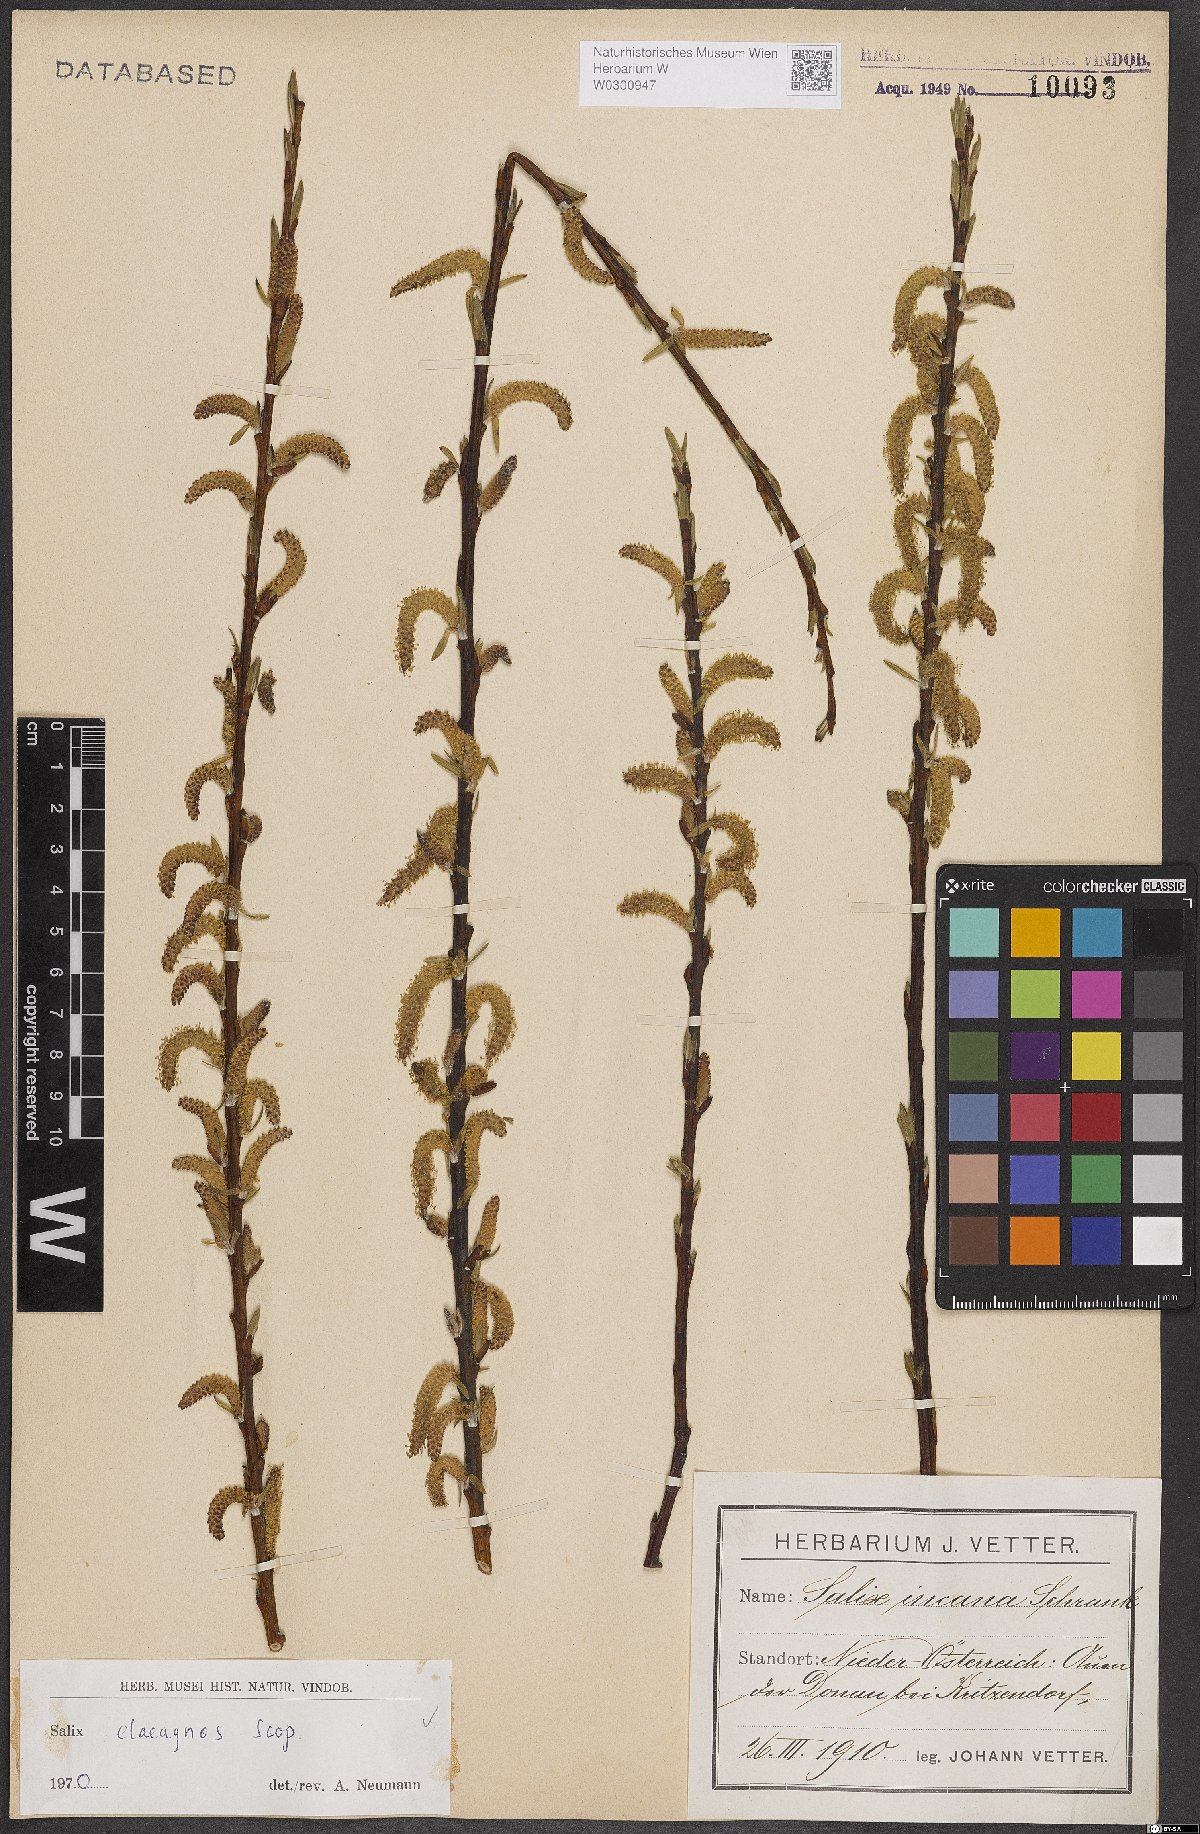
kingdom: Plantae
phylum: Tracheophyta
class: Magnoliopsida
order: Malpighiales
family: Salicaceae
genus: Salix
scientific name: Salix eleagnos
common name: Elaeagnus willow
